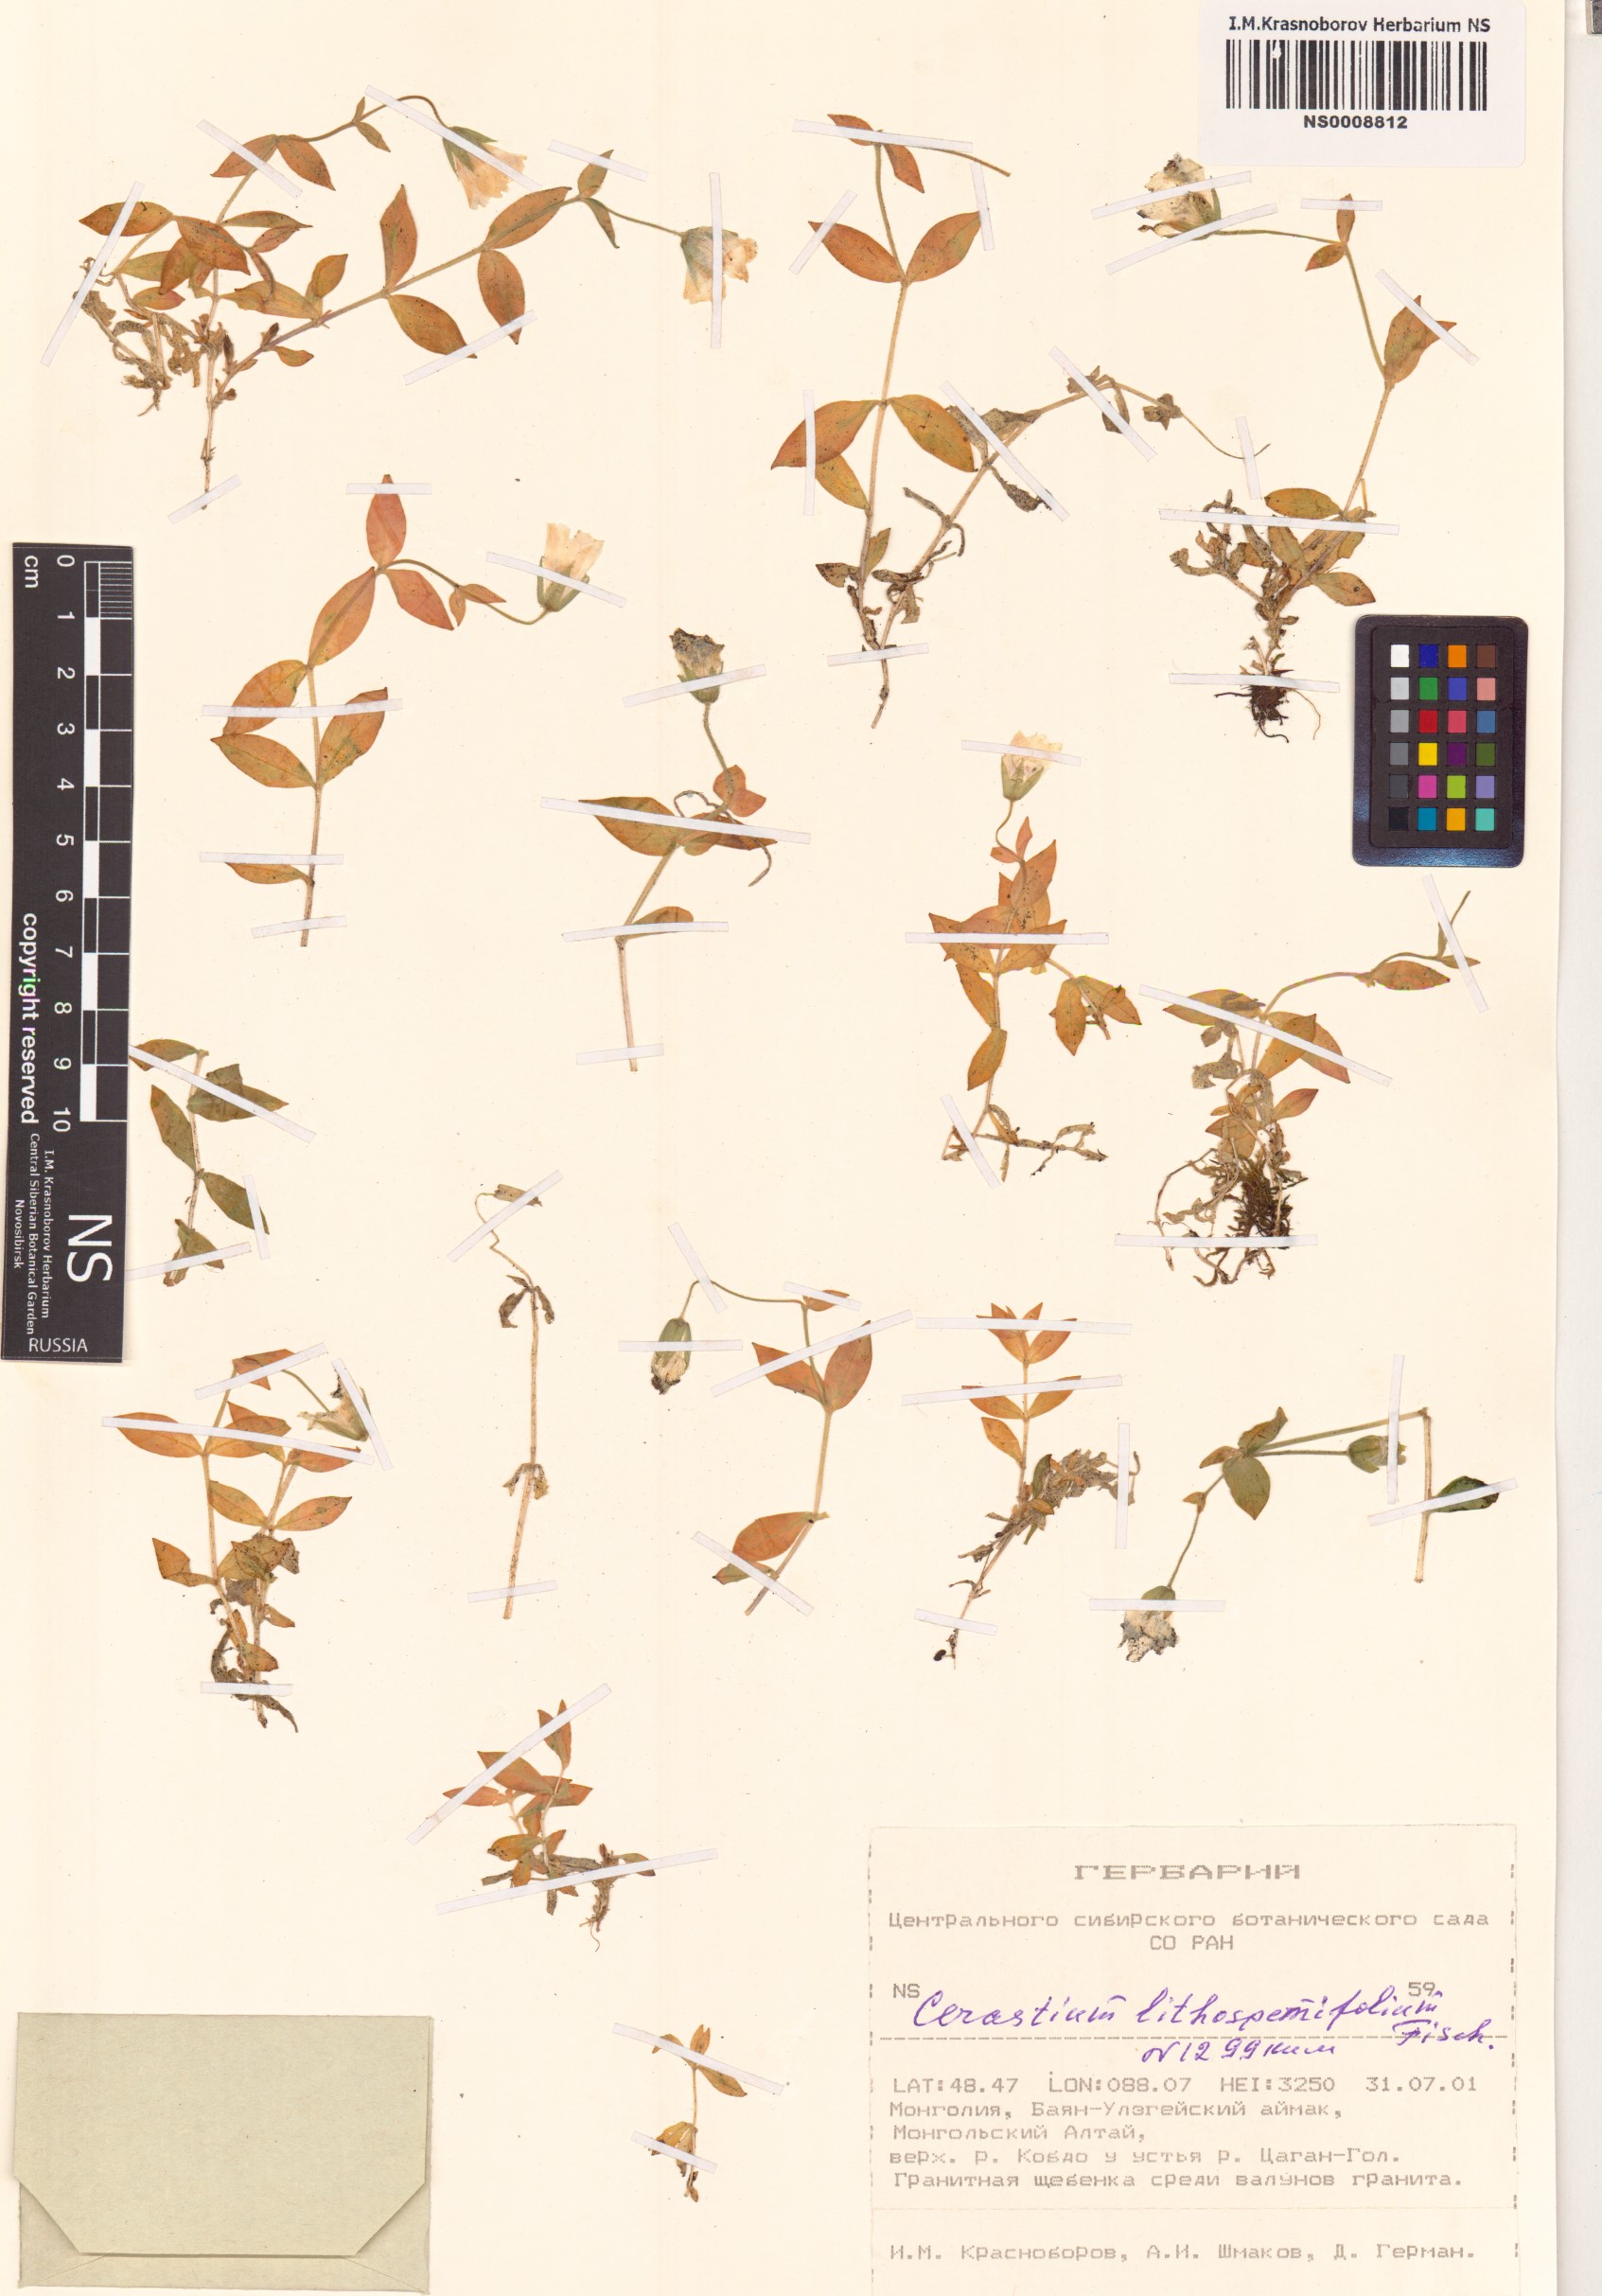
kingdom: Plantae
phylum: Tracheophyta
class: Magnoliopsida
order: Caryophyllales
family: Caryophyllaceae
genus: Cerastium
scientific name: Cerastium lithospermifolium
